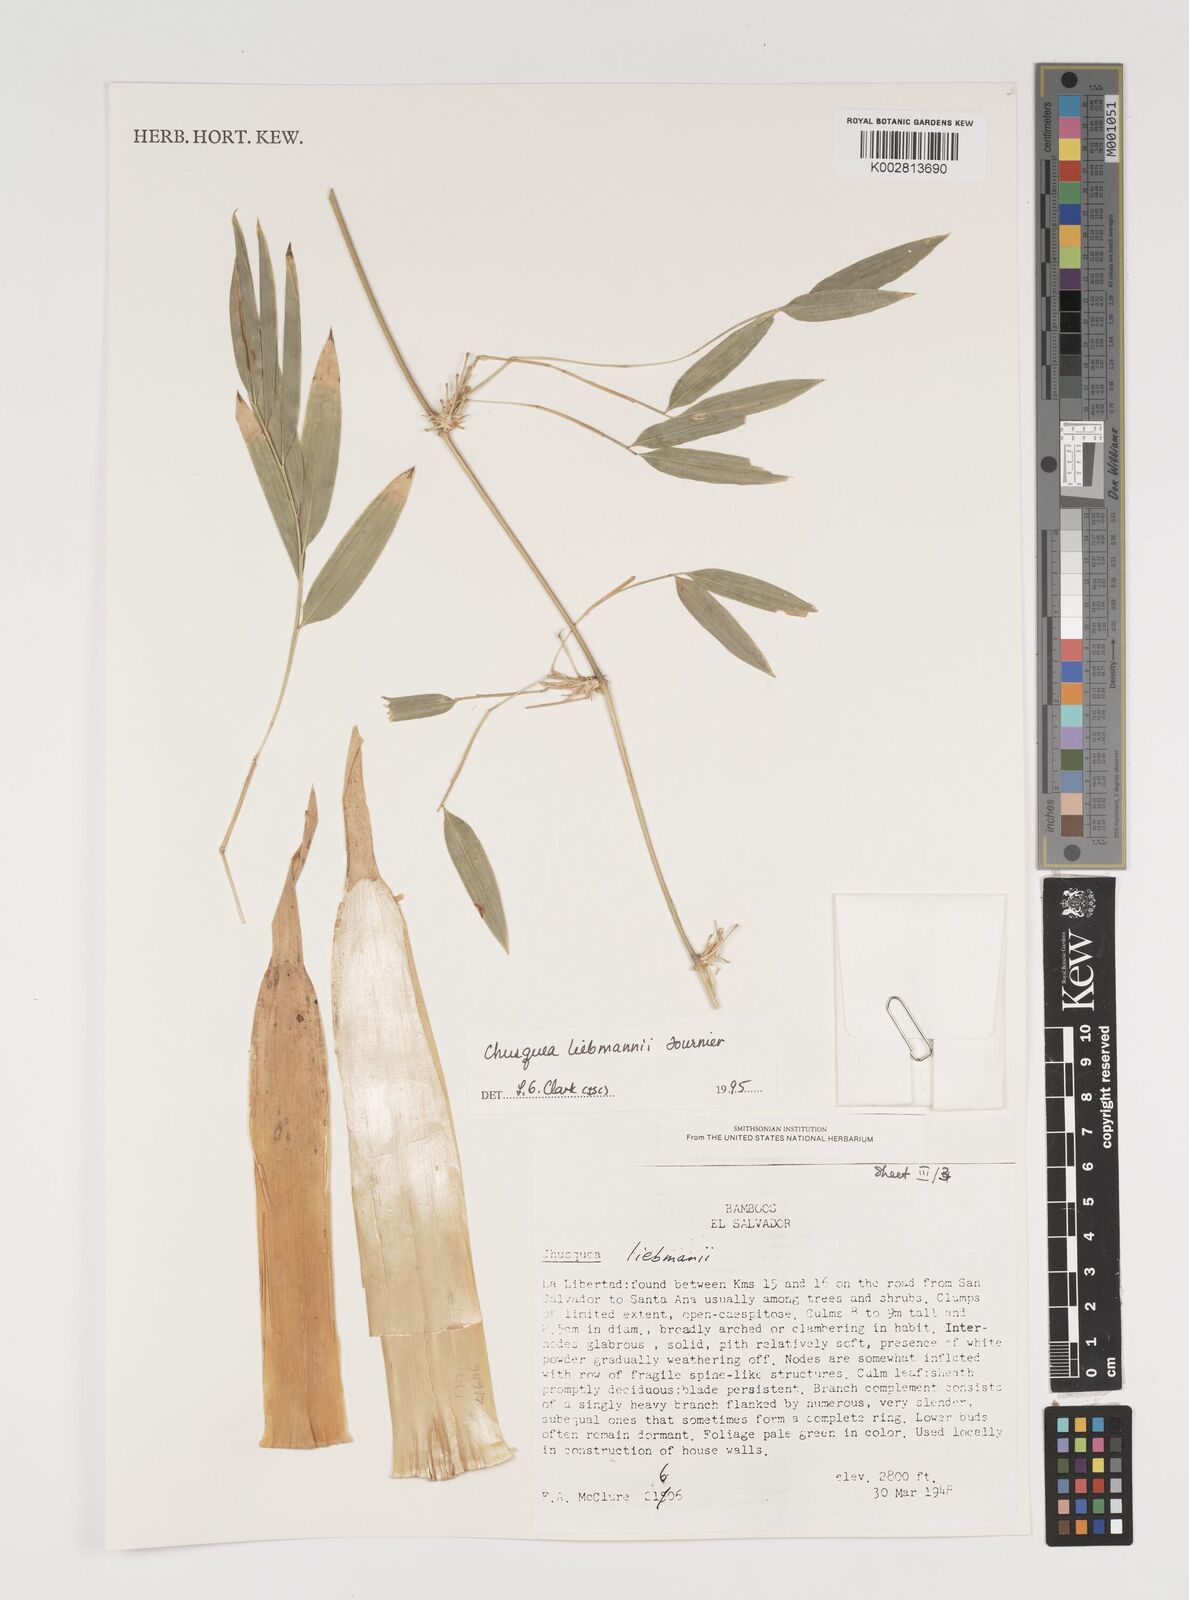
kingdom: Plantae
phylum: Tracheophyta
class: Liliopsida
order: Poales
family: Poaceae
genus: Chusquea
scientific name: Chusquea liebmannii
